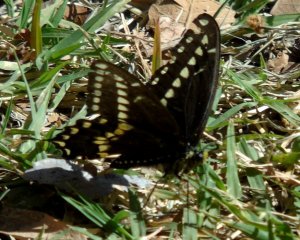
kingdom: Animalia
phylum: Arthropoda
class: Insecta
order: Lepidoptera
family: Papilionidae
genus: Papilio
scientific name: Papilio polyxenes
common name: Black Swallowtail
